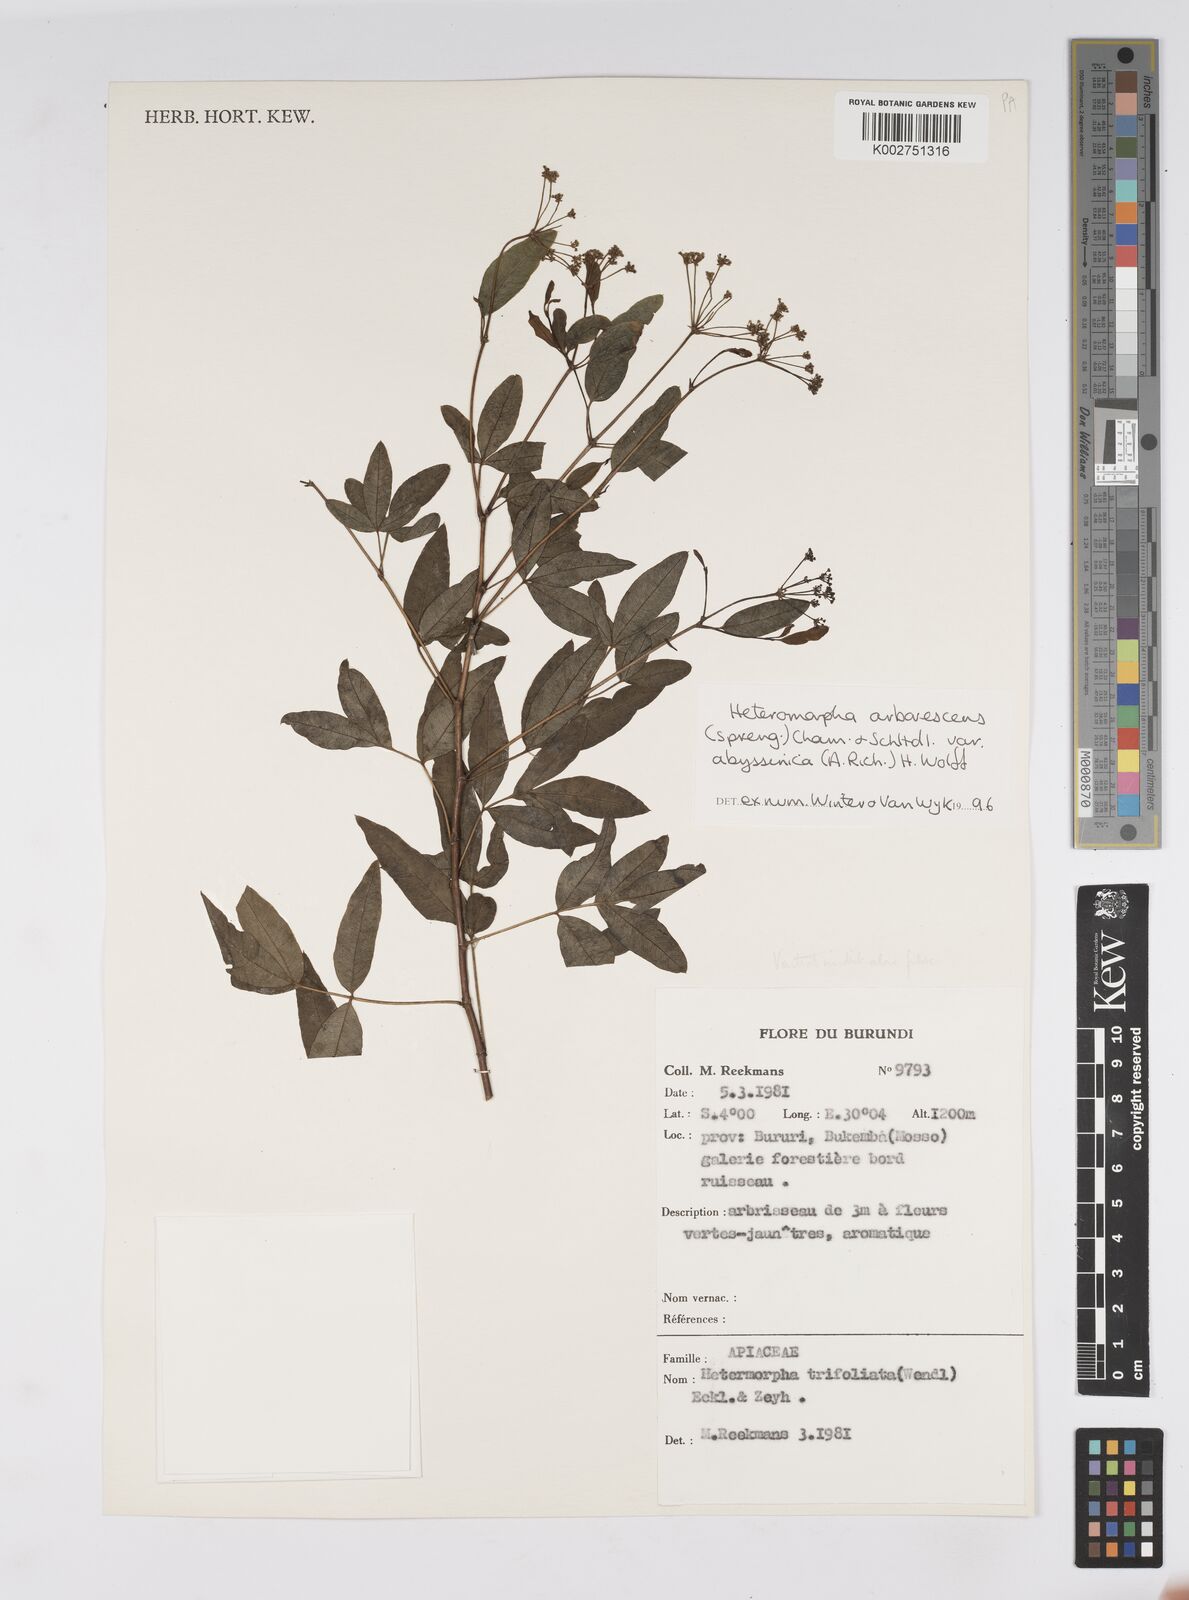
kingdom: Plantae
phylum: Tracheophyta
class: Magnoliopsida
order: Apiales
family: Apiaceae
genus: Heteromorpha
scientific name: Heteromorpha arborescens
